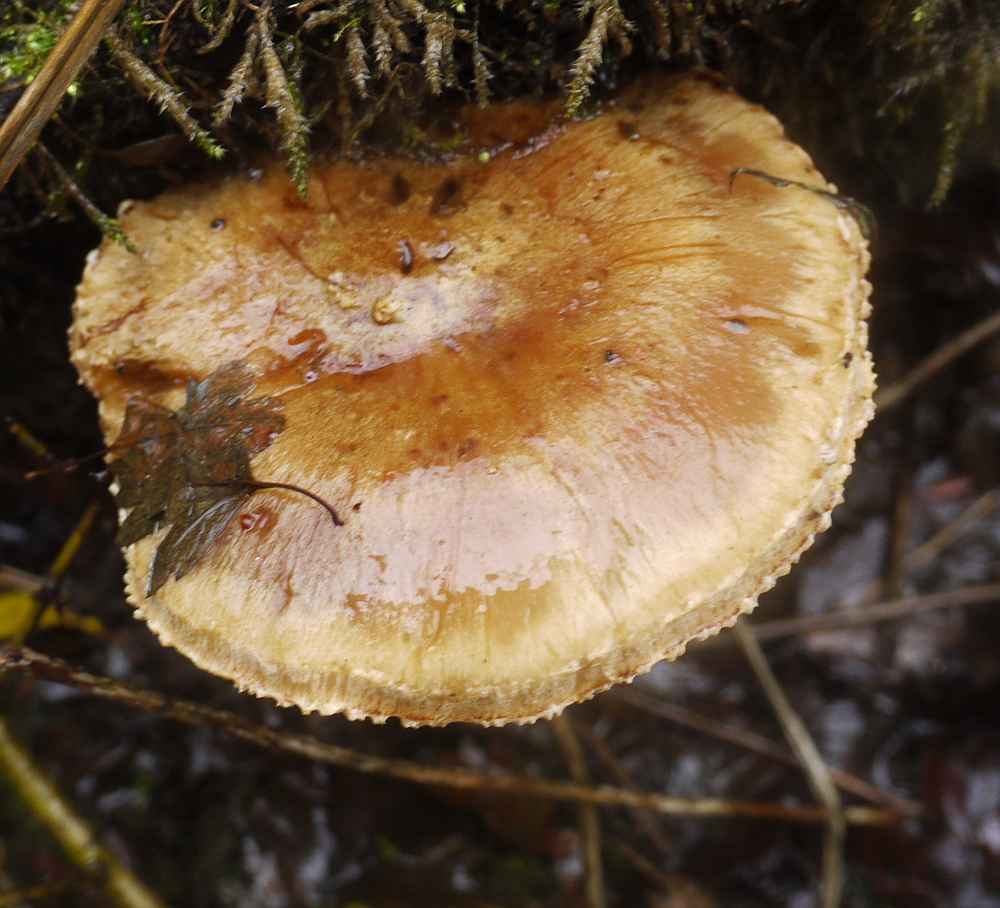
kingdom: Fungi
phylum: Basidiomycota
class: Agaricomycetes
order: Agaricales
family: Strophariaceae
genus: Pholiota
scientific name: Pholiota populnea
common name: poppel-kæmpeskælhat
